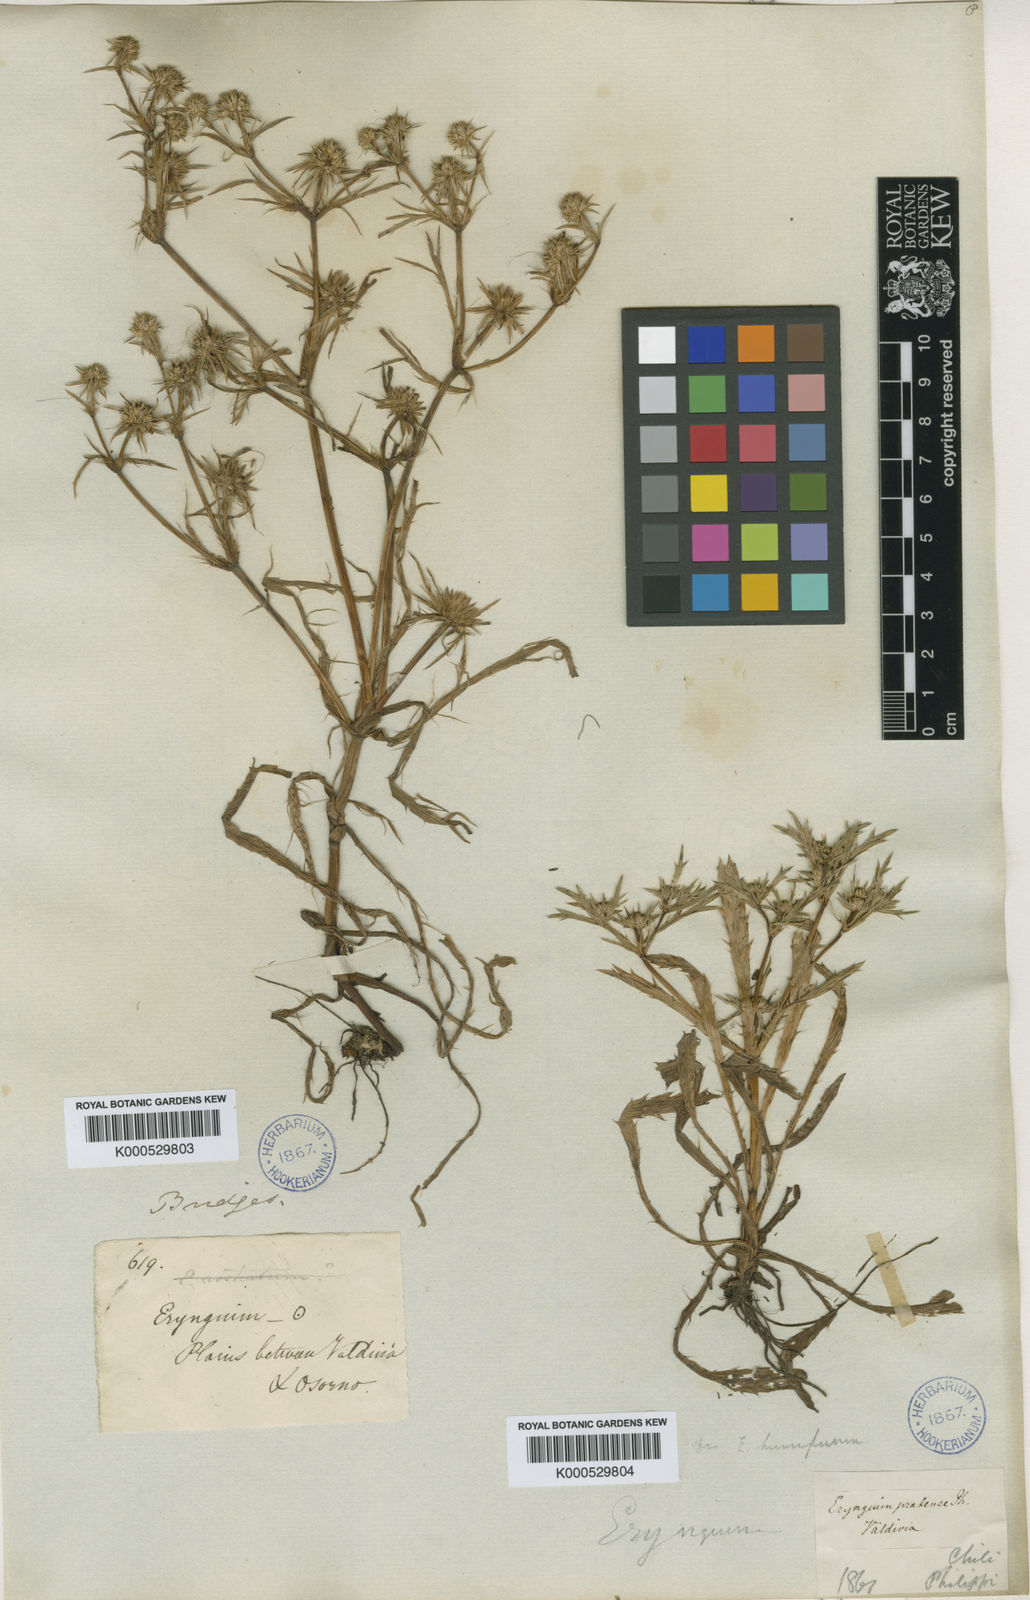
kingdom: Plantae
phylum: Tracheophyta
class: Magnoliopsida
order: Apiales
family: Apiaceae
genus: Eryngium
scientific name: Eryngium humifusum
